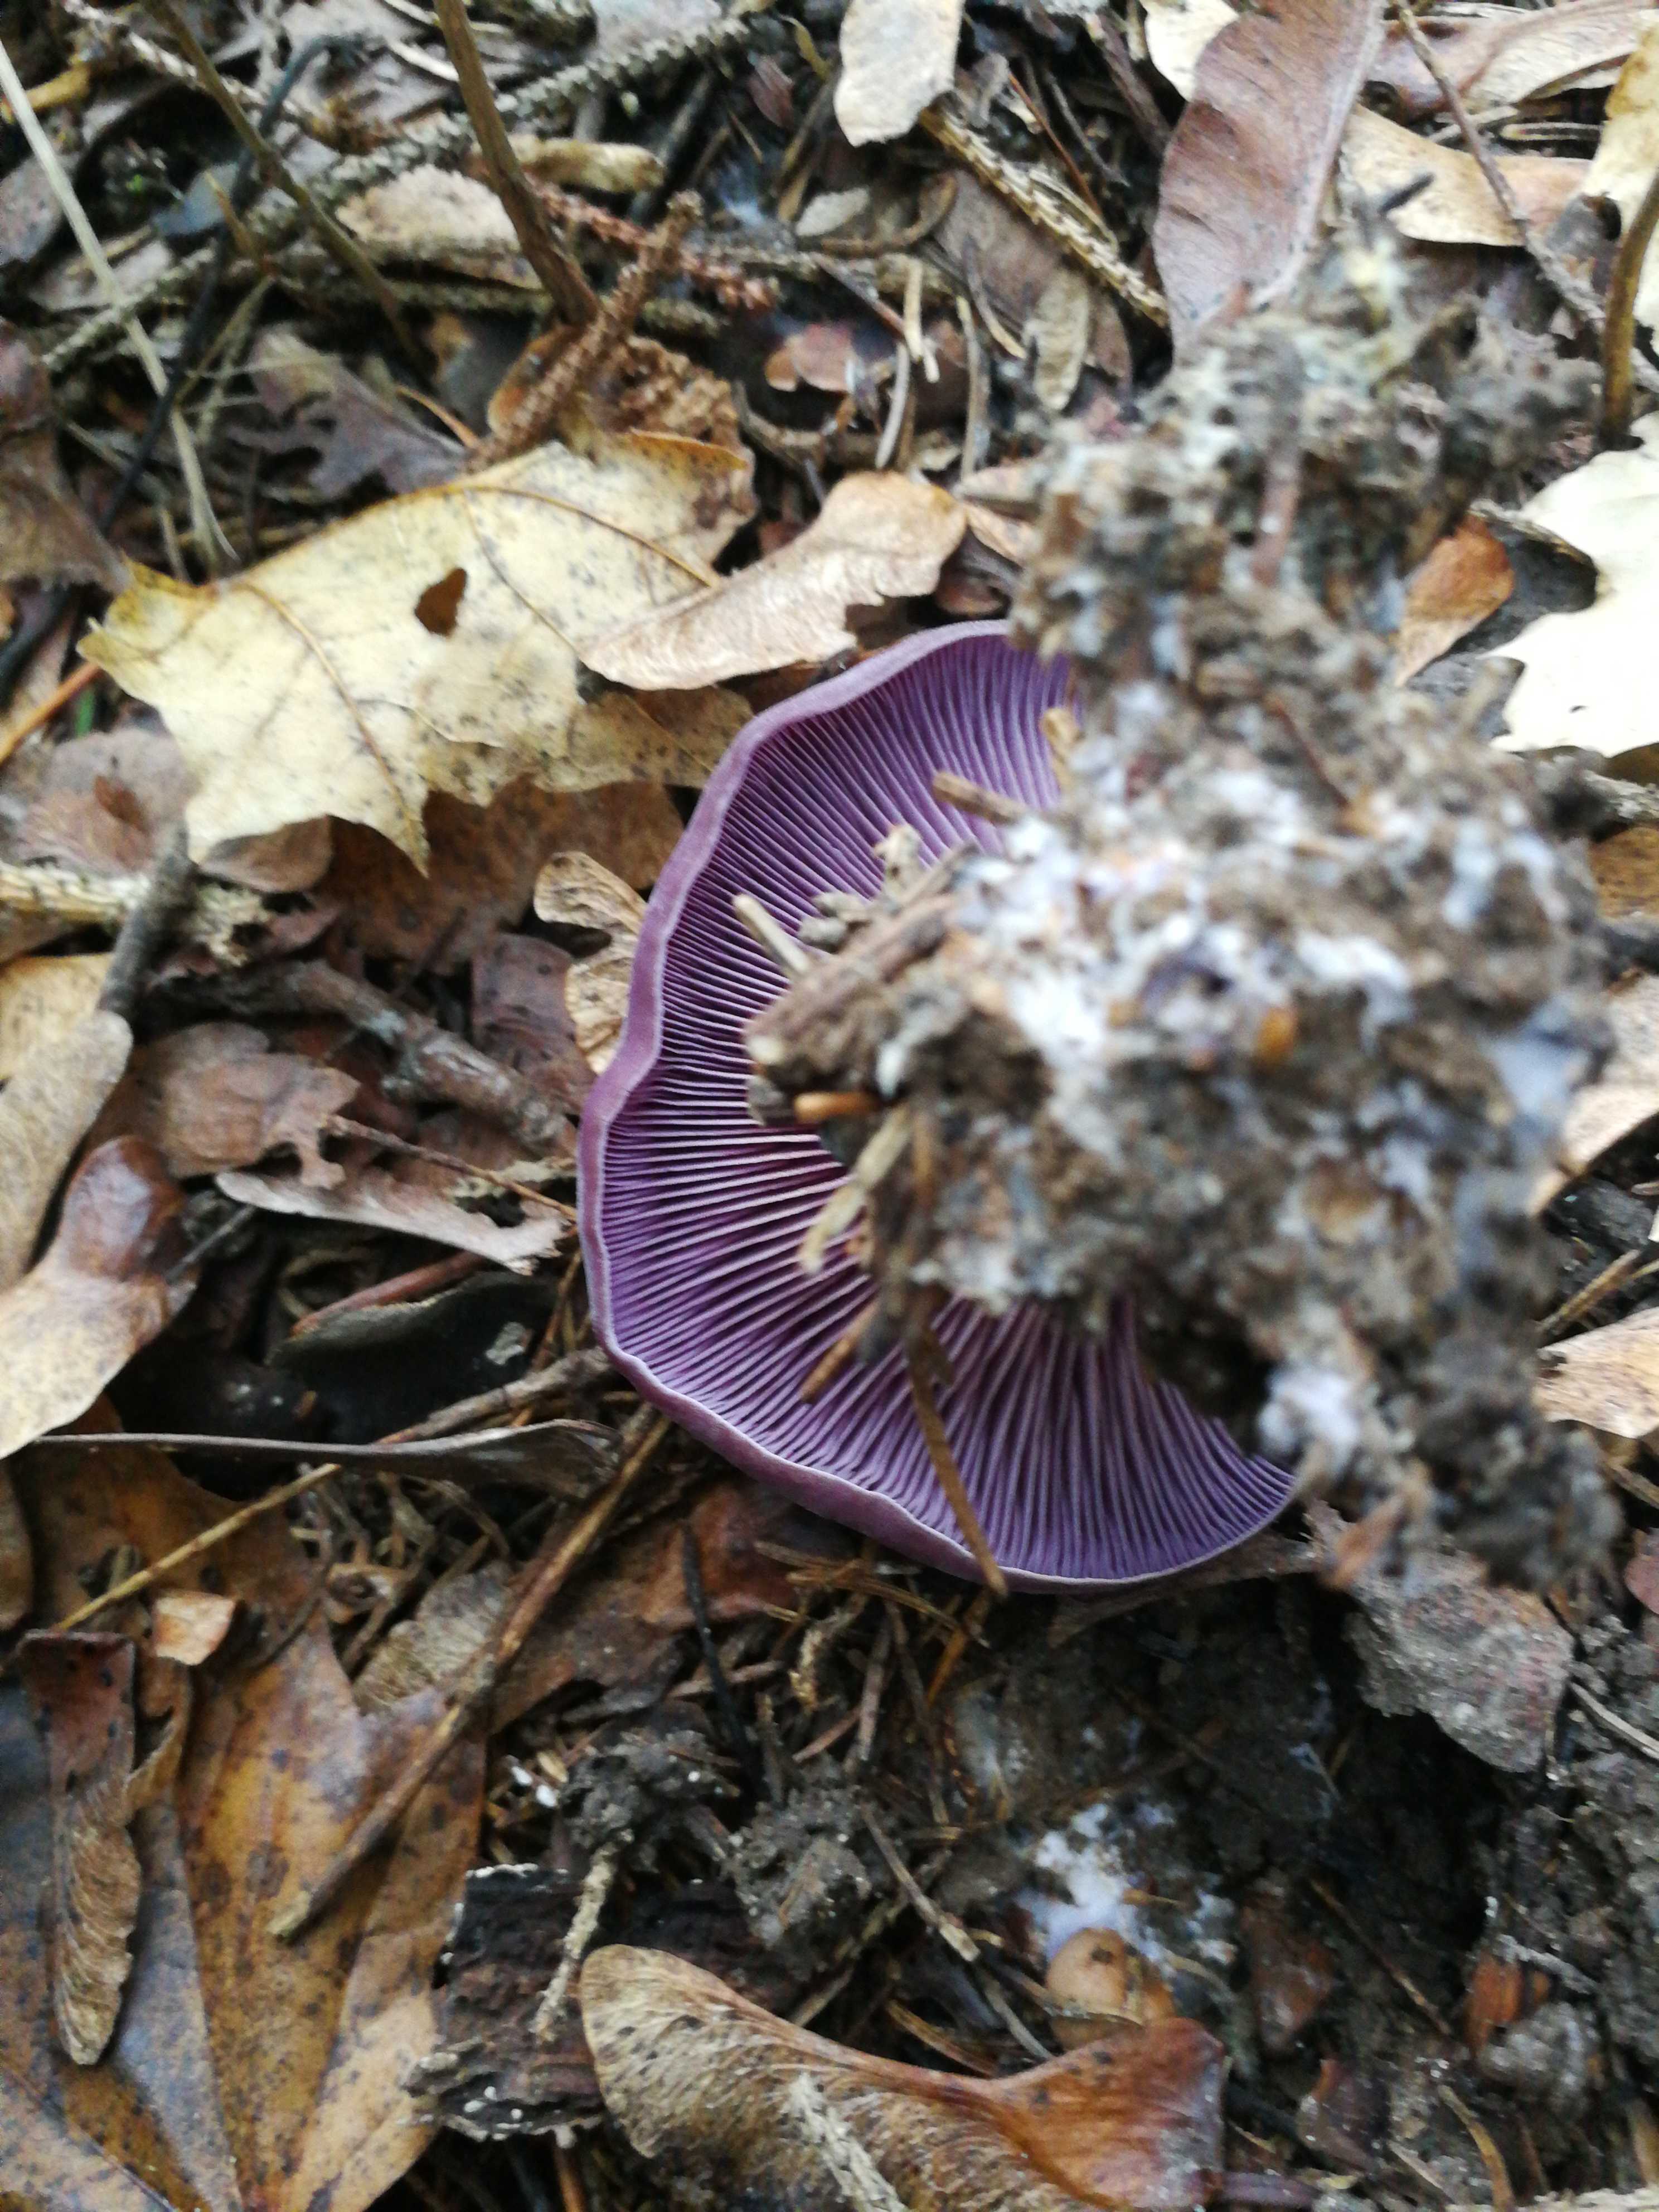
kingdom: Fungi
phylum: Basidiomycota
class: Agaricomycetes
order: Agaricales
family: Tricholomataceae
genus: Lepista
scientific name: Lepista
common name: hekseringshat
